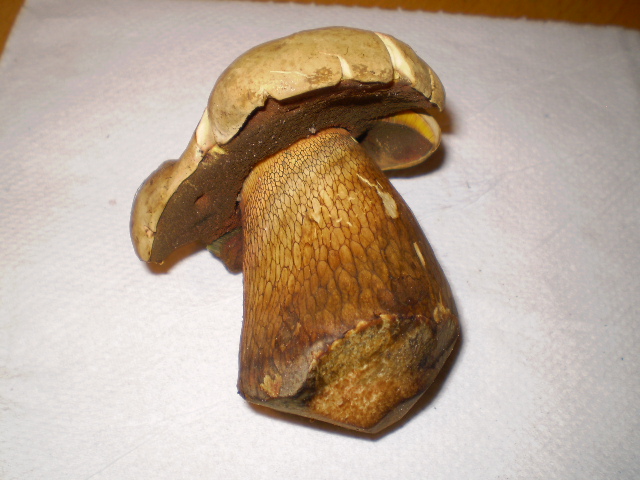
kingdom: Fungi
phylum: Basidiomycota
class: Agaricomycetes
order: Boletales
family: Boletaceae
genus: Suillellus
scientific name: Suillellus luridus
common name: netstokket indigorørhat
